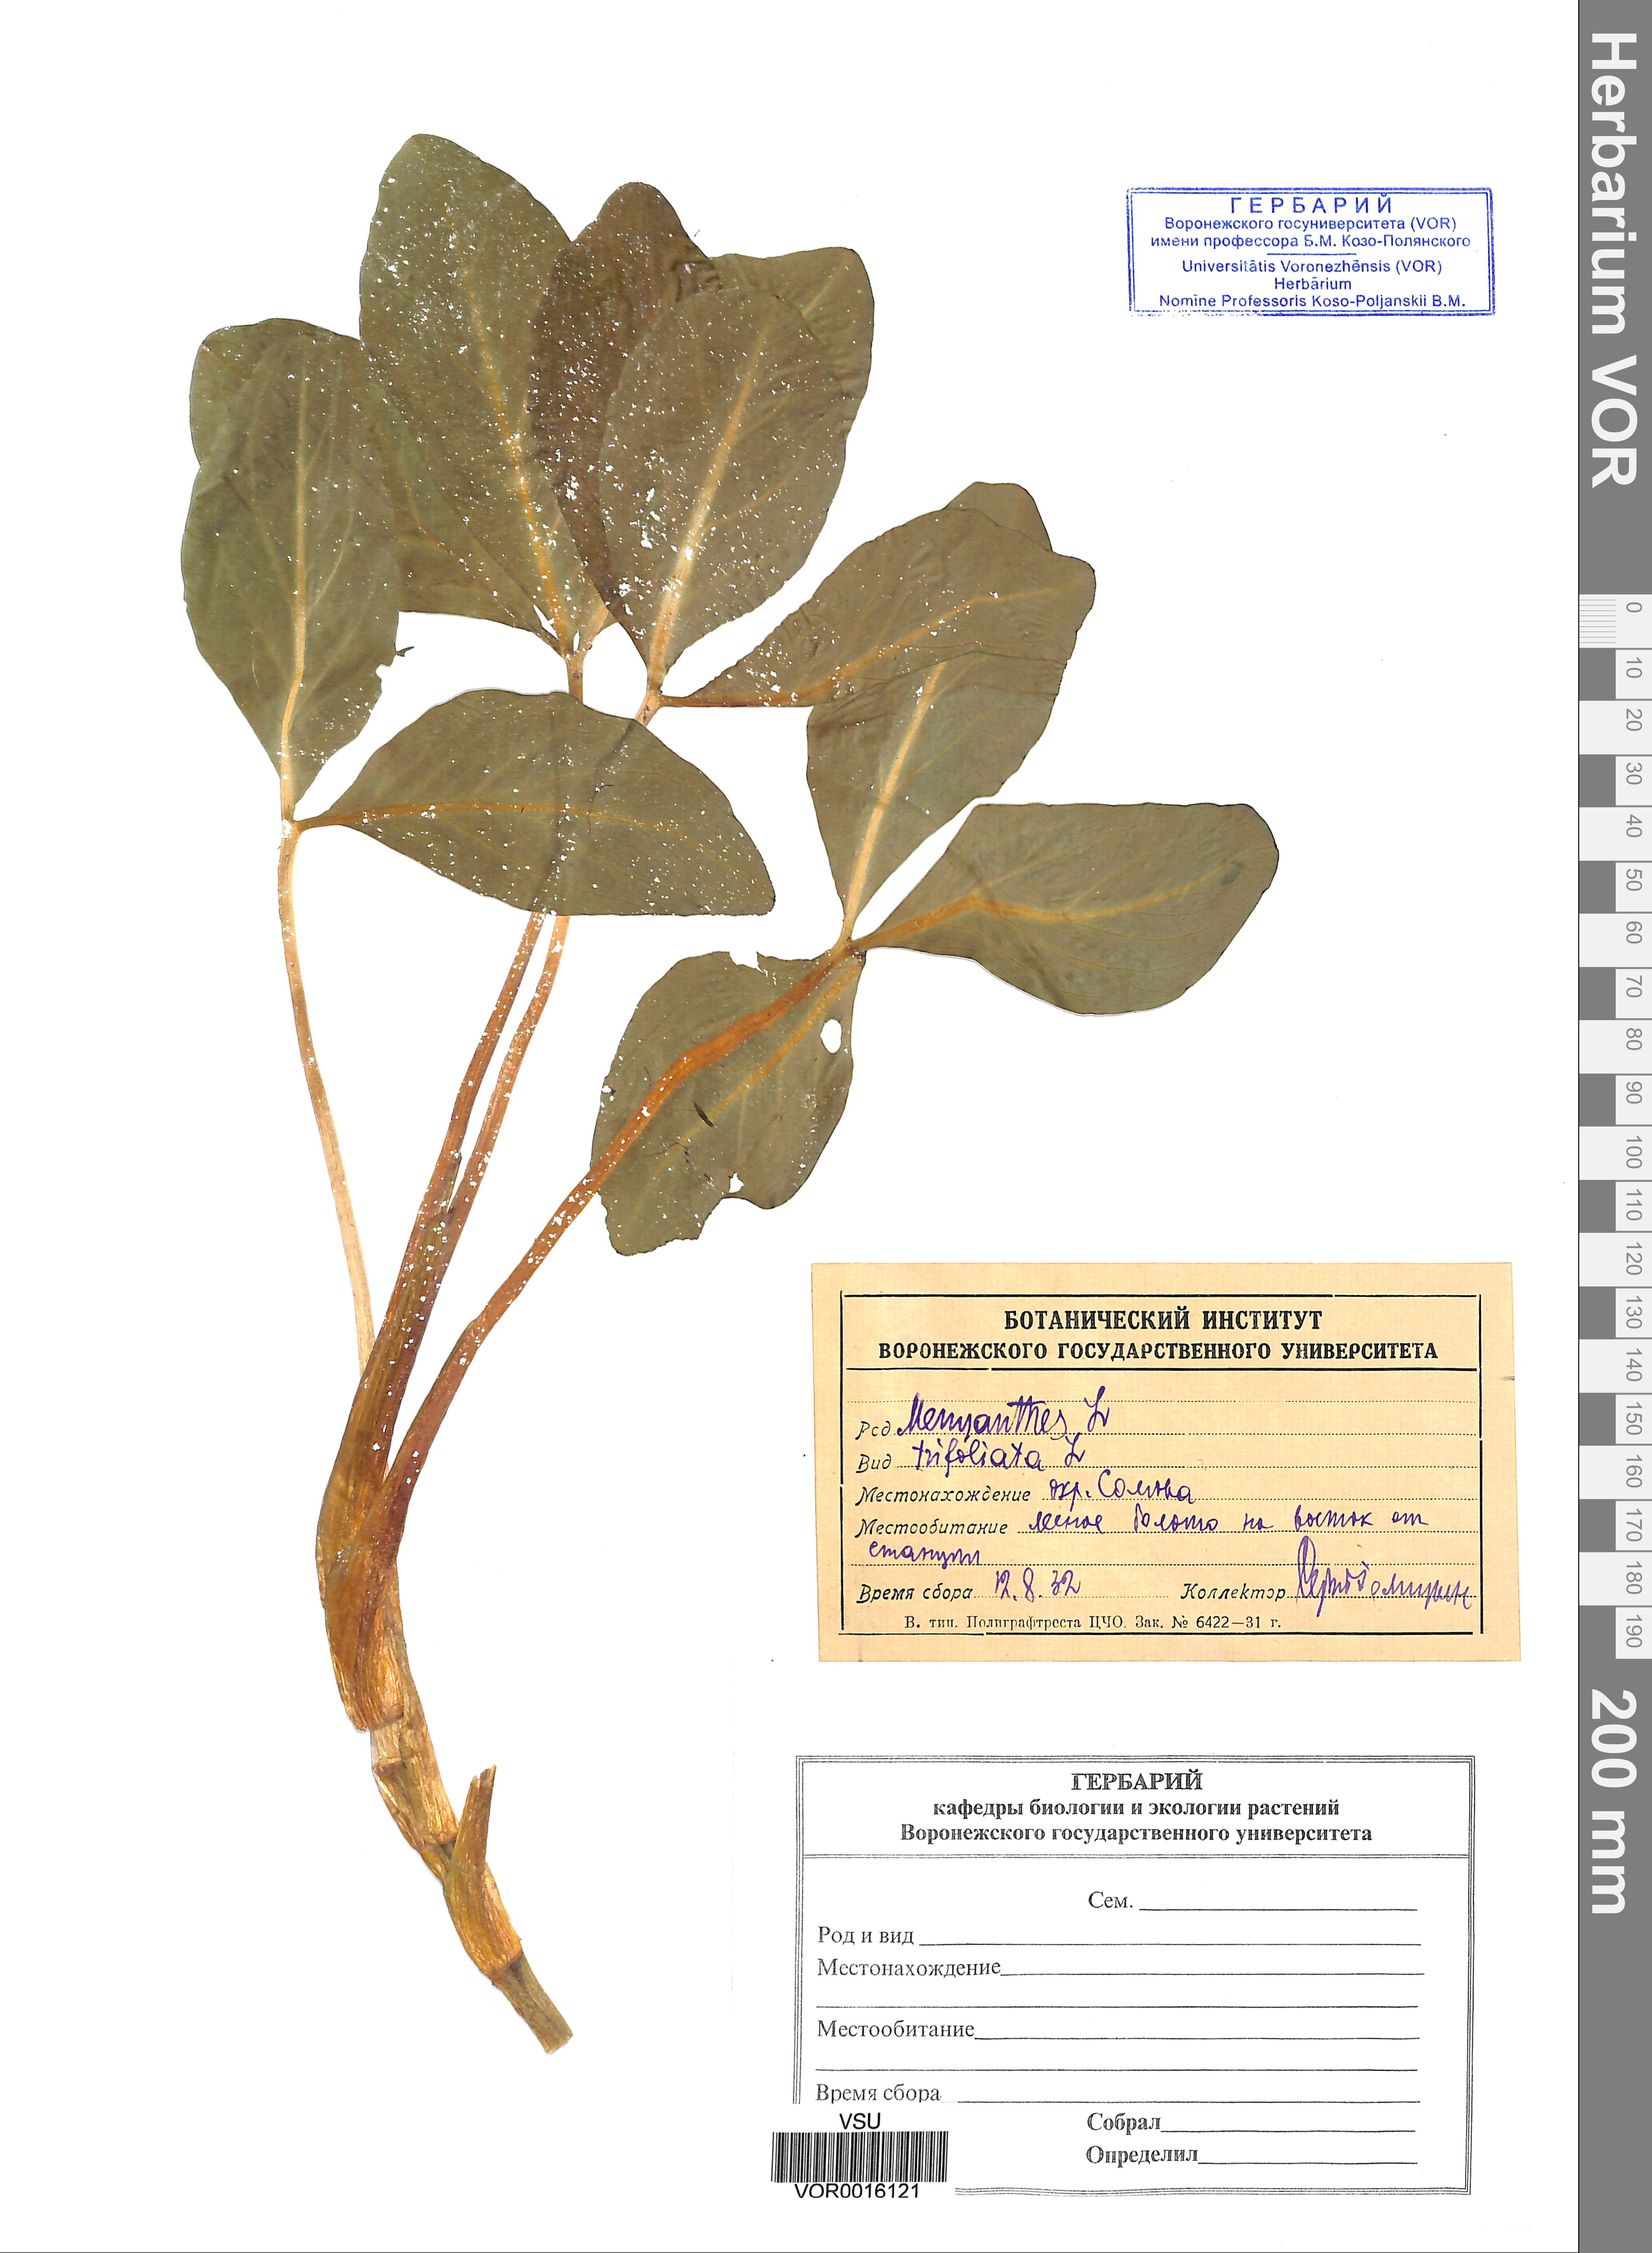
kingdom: Plantae
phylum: Tracheophyta
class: Magnoliopsida
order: Asterales
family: Menyanthaceae
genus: Menyanthes
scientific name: Menyanthes trifoliata
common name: Bogbean
